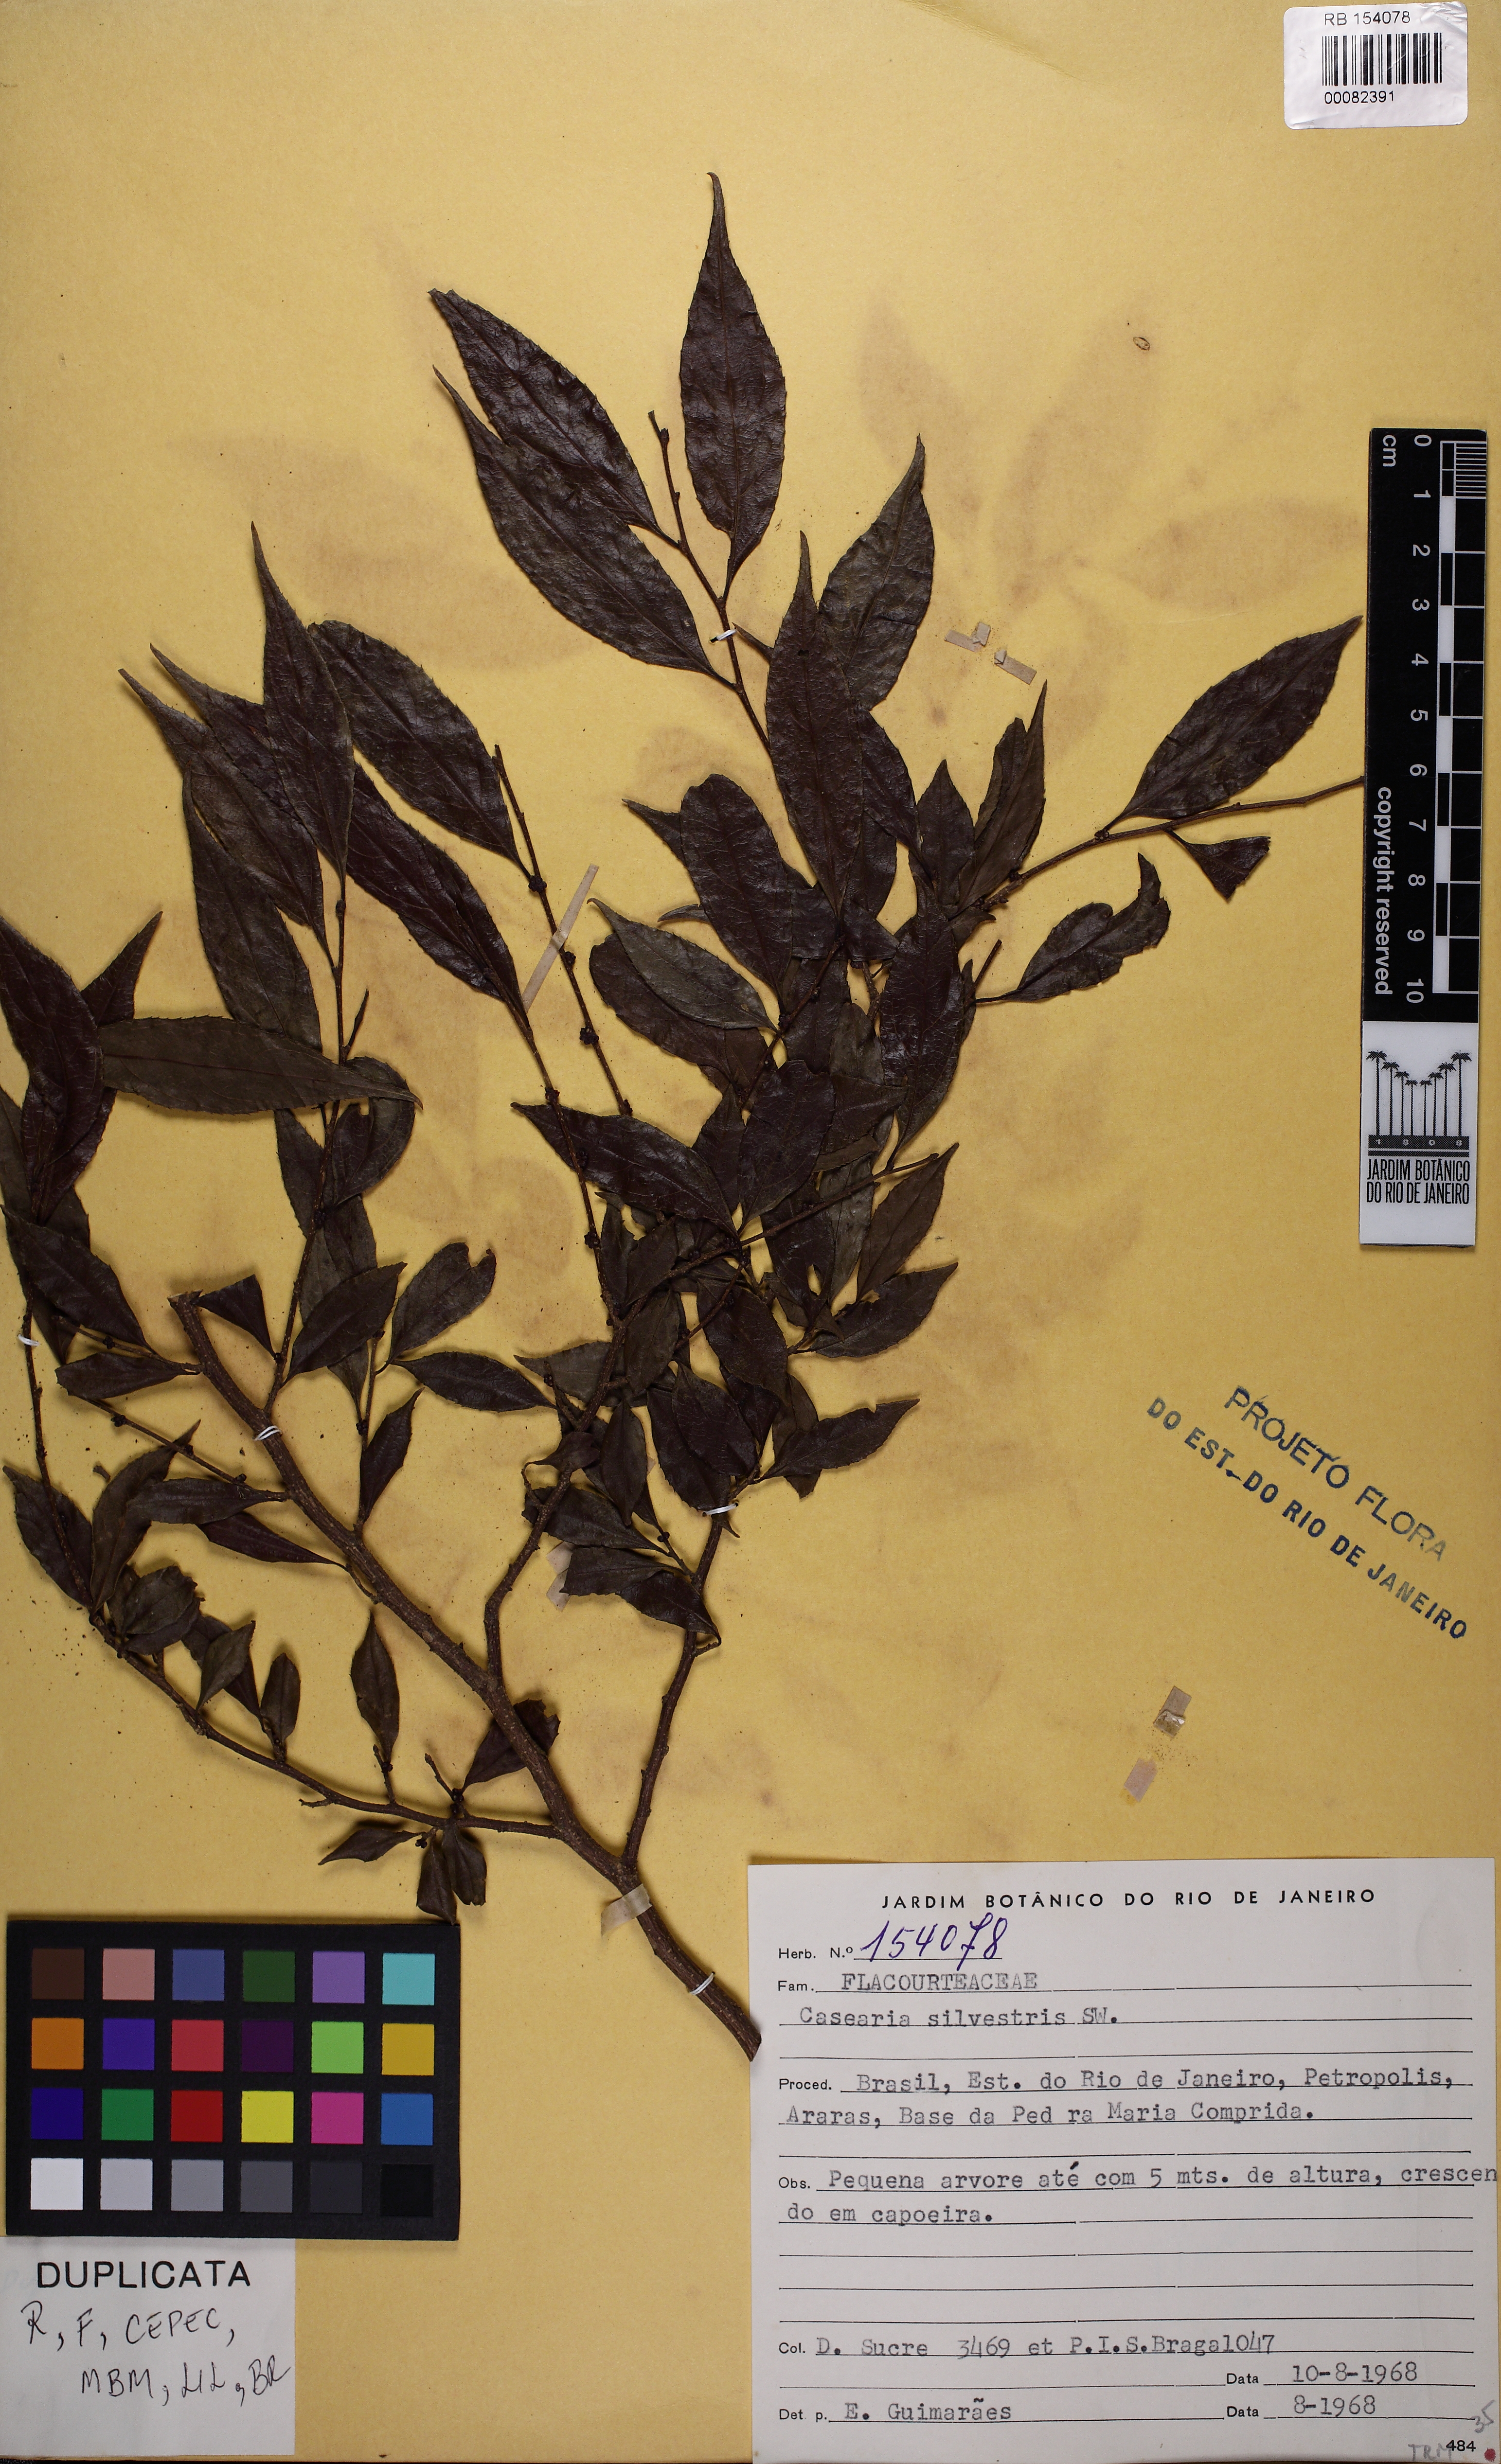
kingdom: Plantae
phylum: Tracheophyta
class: Magnoliopsida
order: Malpighiales
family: Salicaceae
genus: Casearia
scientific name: Casearia sylvestris
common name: Wild sage
